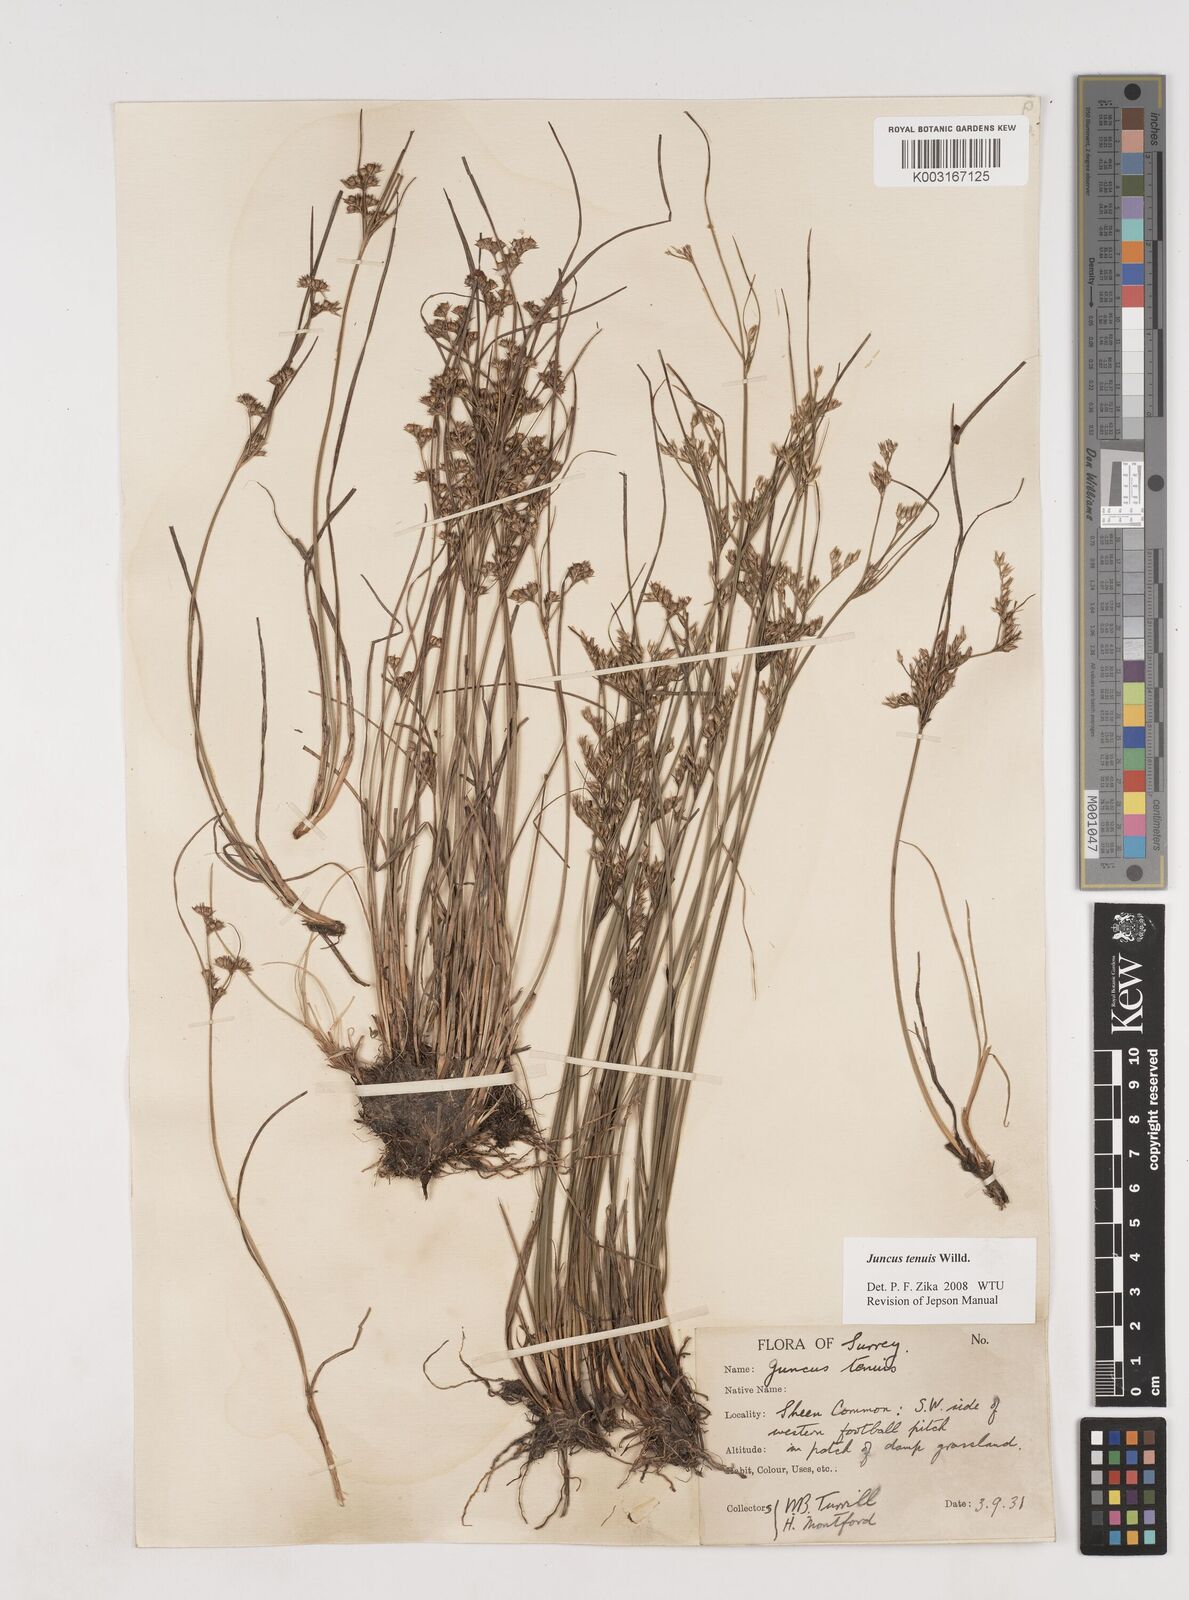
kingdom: Plantae
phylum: Tracheophyta
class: Liliopsida
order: Poales
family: Juncaceae
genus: Juncus
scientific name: Juncus tenuis
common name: Slender rush
